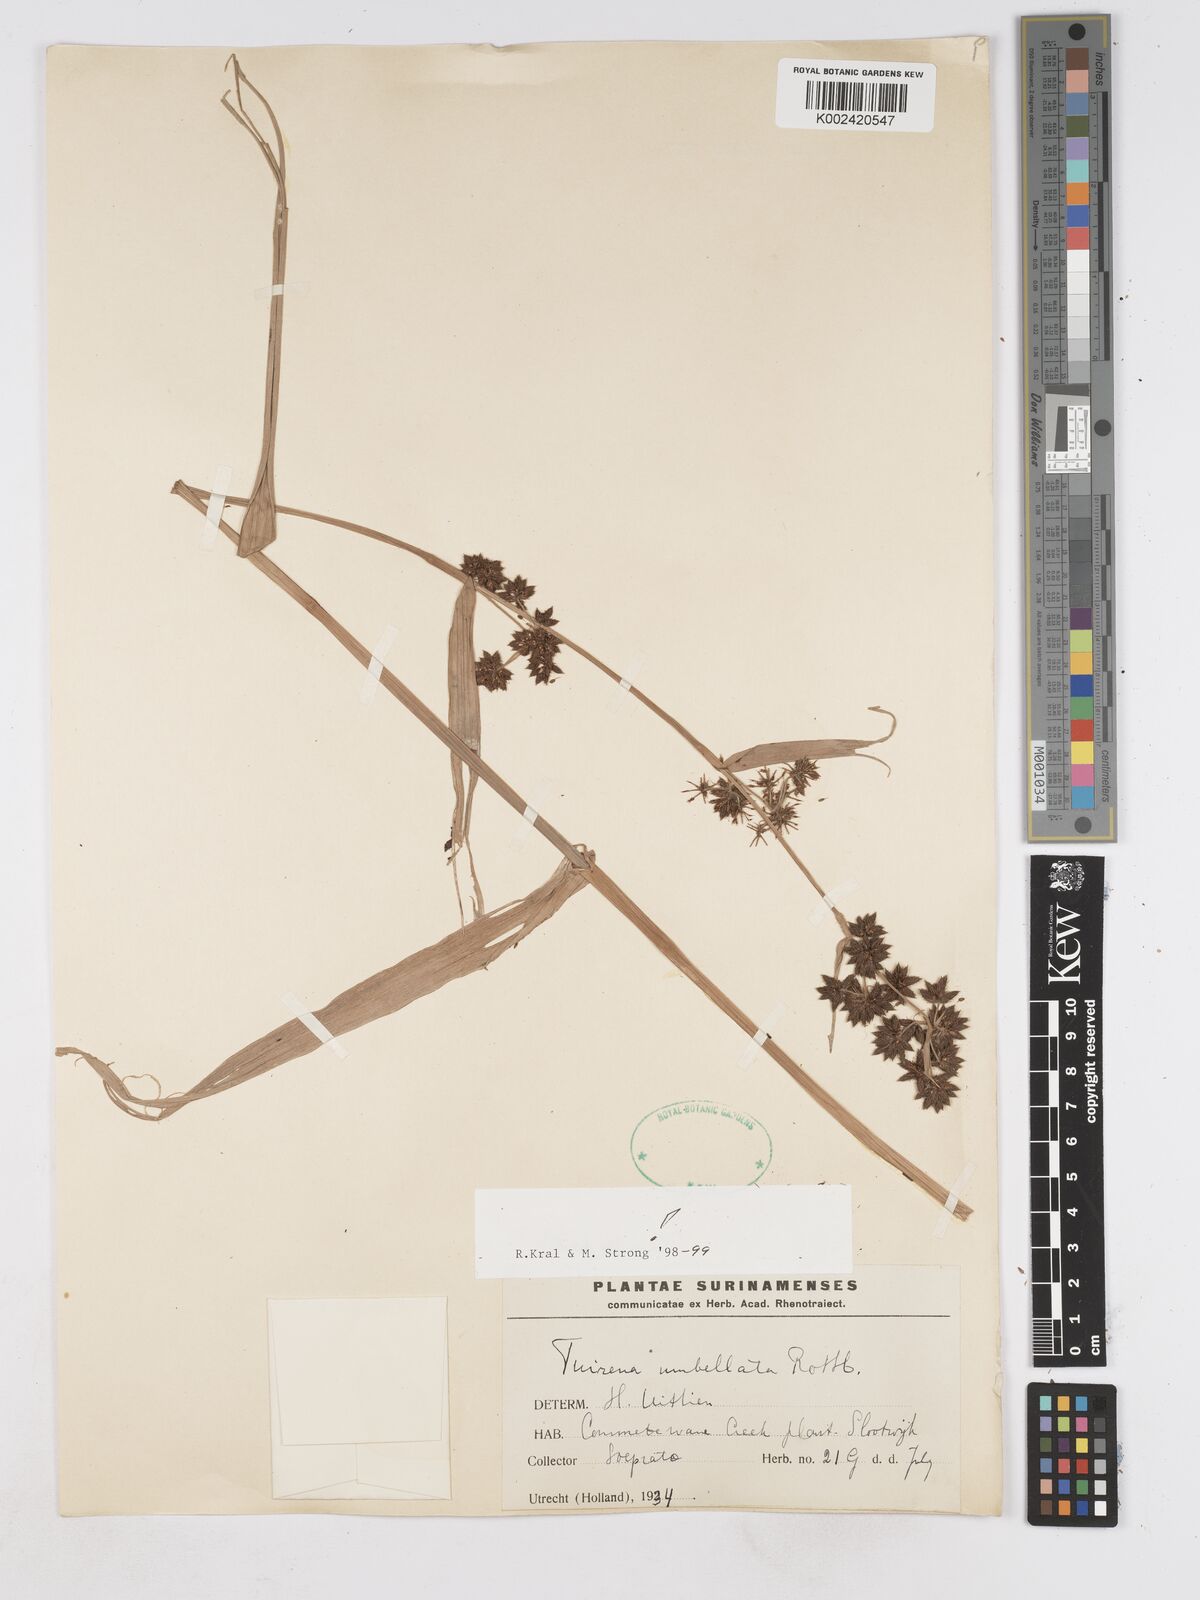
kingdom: Plantae
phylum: Tracheophyta
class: Liliopsida
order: Poales
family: Cyperaceae
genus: Fuirena
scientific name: Fuirena umbellata
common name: Yefen
